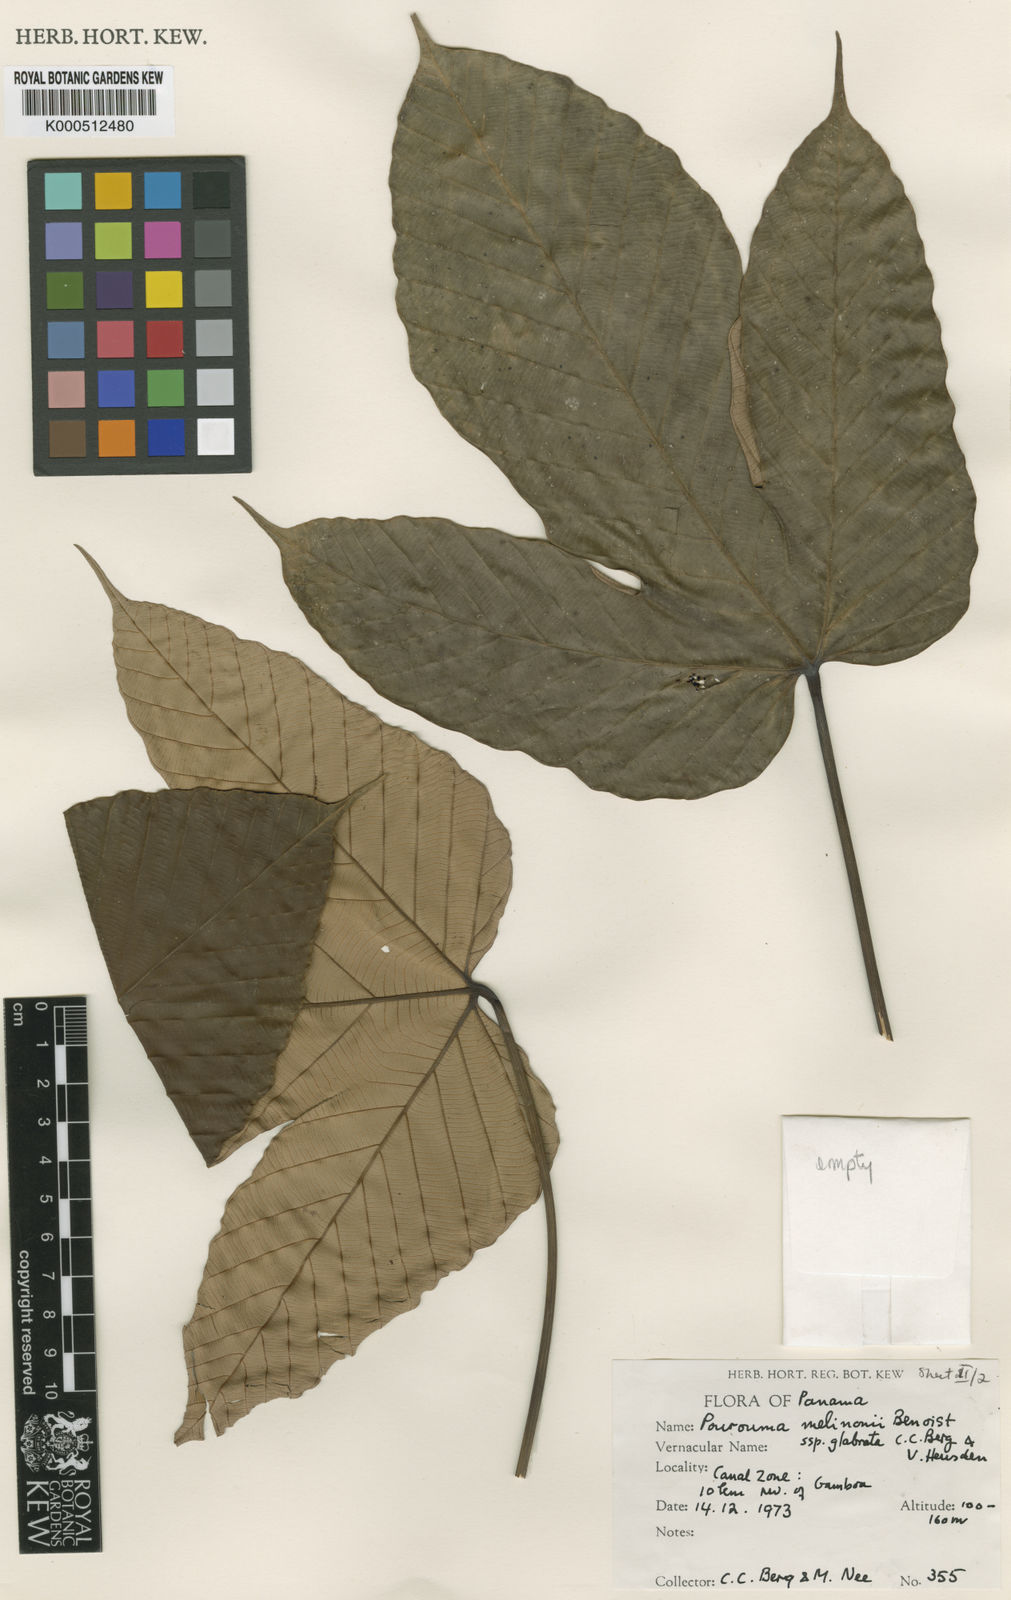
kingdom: Plantae
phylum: Tracheophyta
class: Magnoliopsida
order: Rosales
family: Urticaceae
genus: Pourouma
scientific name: Pourouma melinonii
